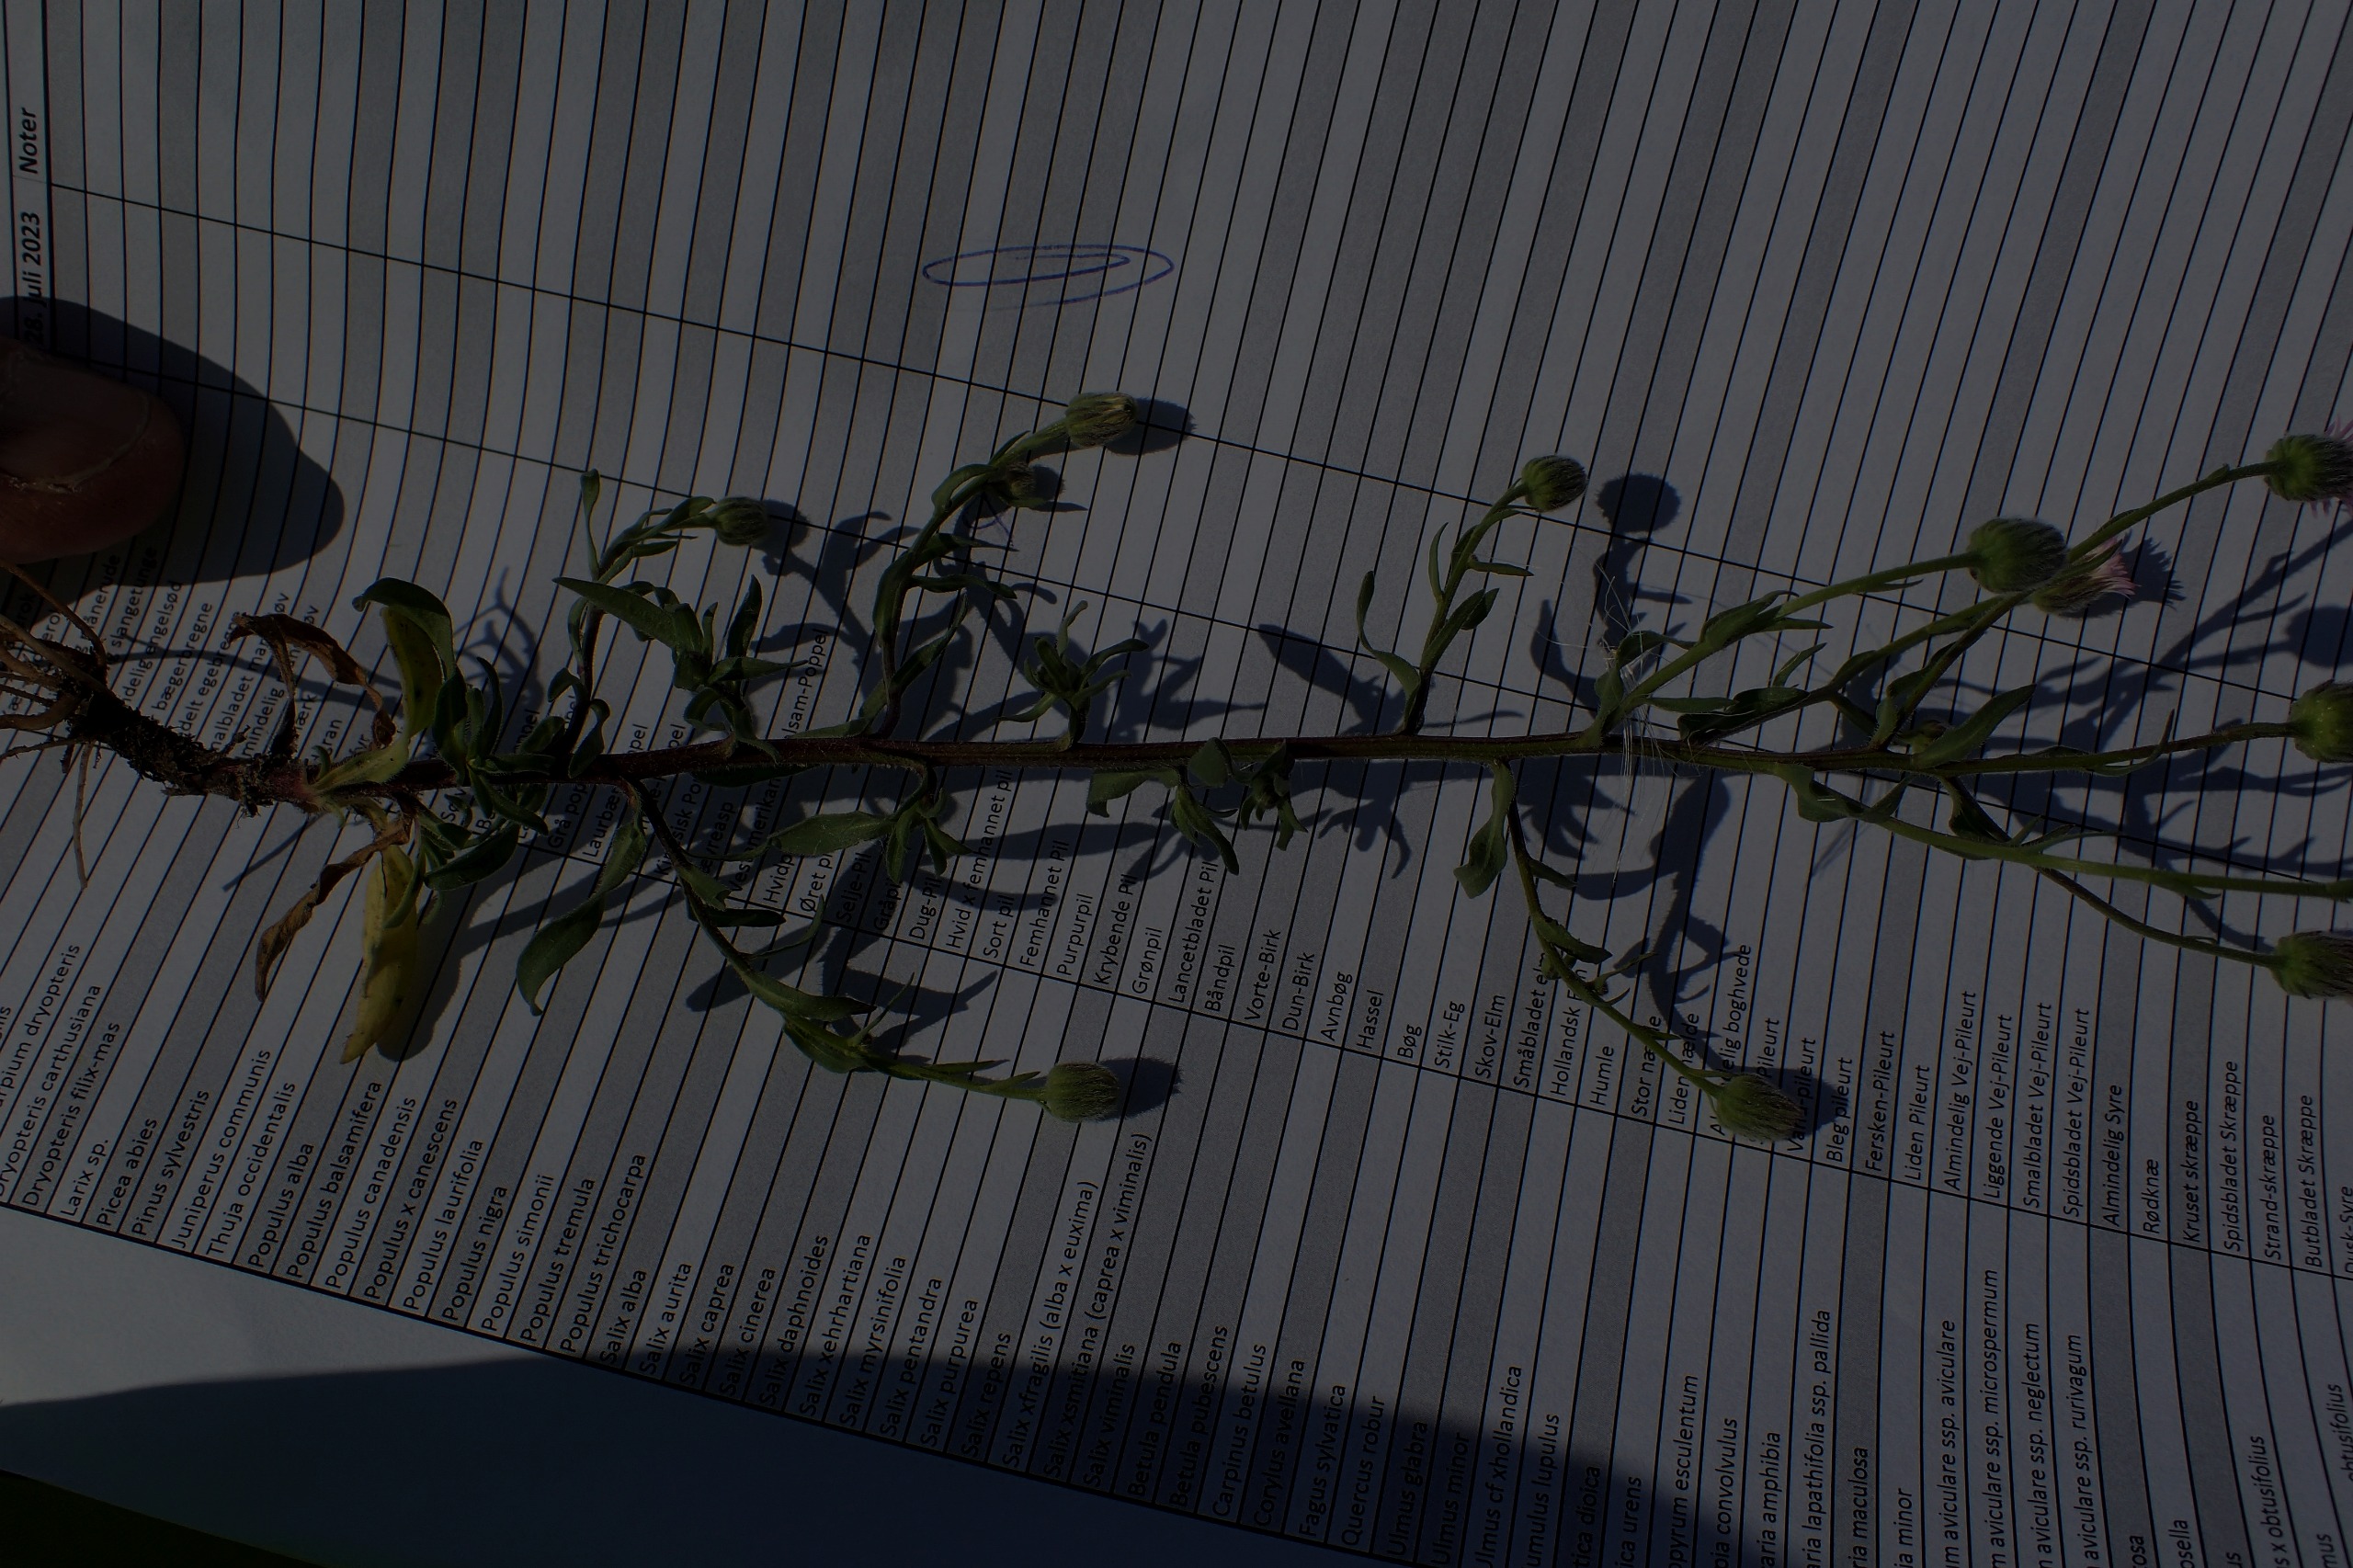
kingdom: Plantae
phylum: Tracheophyta
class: Magnoliopsida
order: Asterales
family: Asteraceae
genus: Erigeron
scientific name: Erigeron muralis
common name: Vreden bakkestjerne
